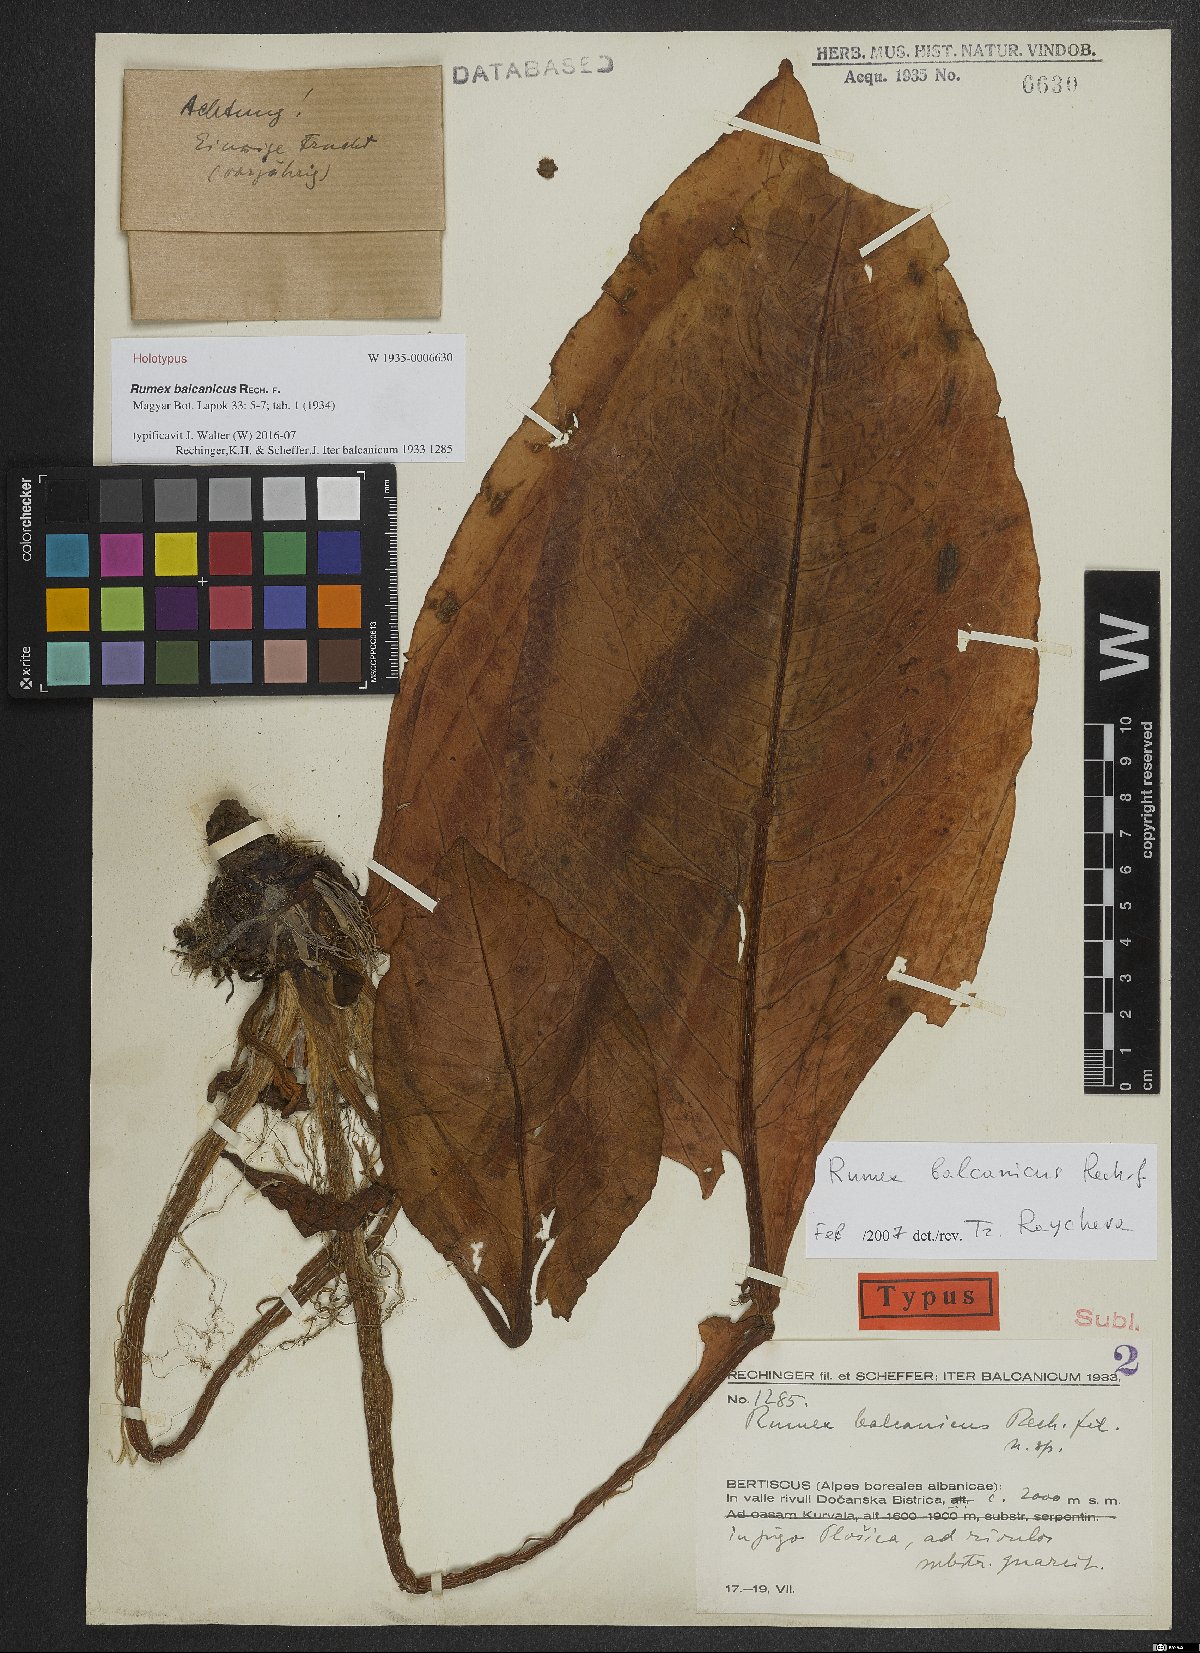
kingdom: Plantae
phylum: Tracheophyta
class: Magnoliopsida
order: Caryophyllales
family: Polygonaceae
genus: Rumex
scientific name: Rumex balcanicus
